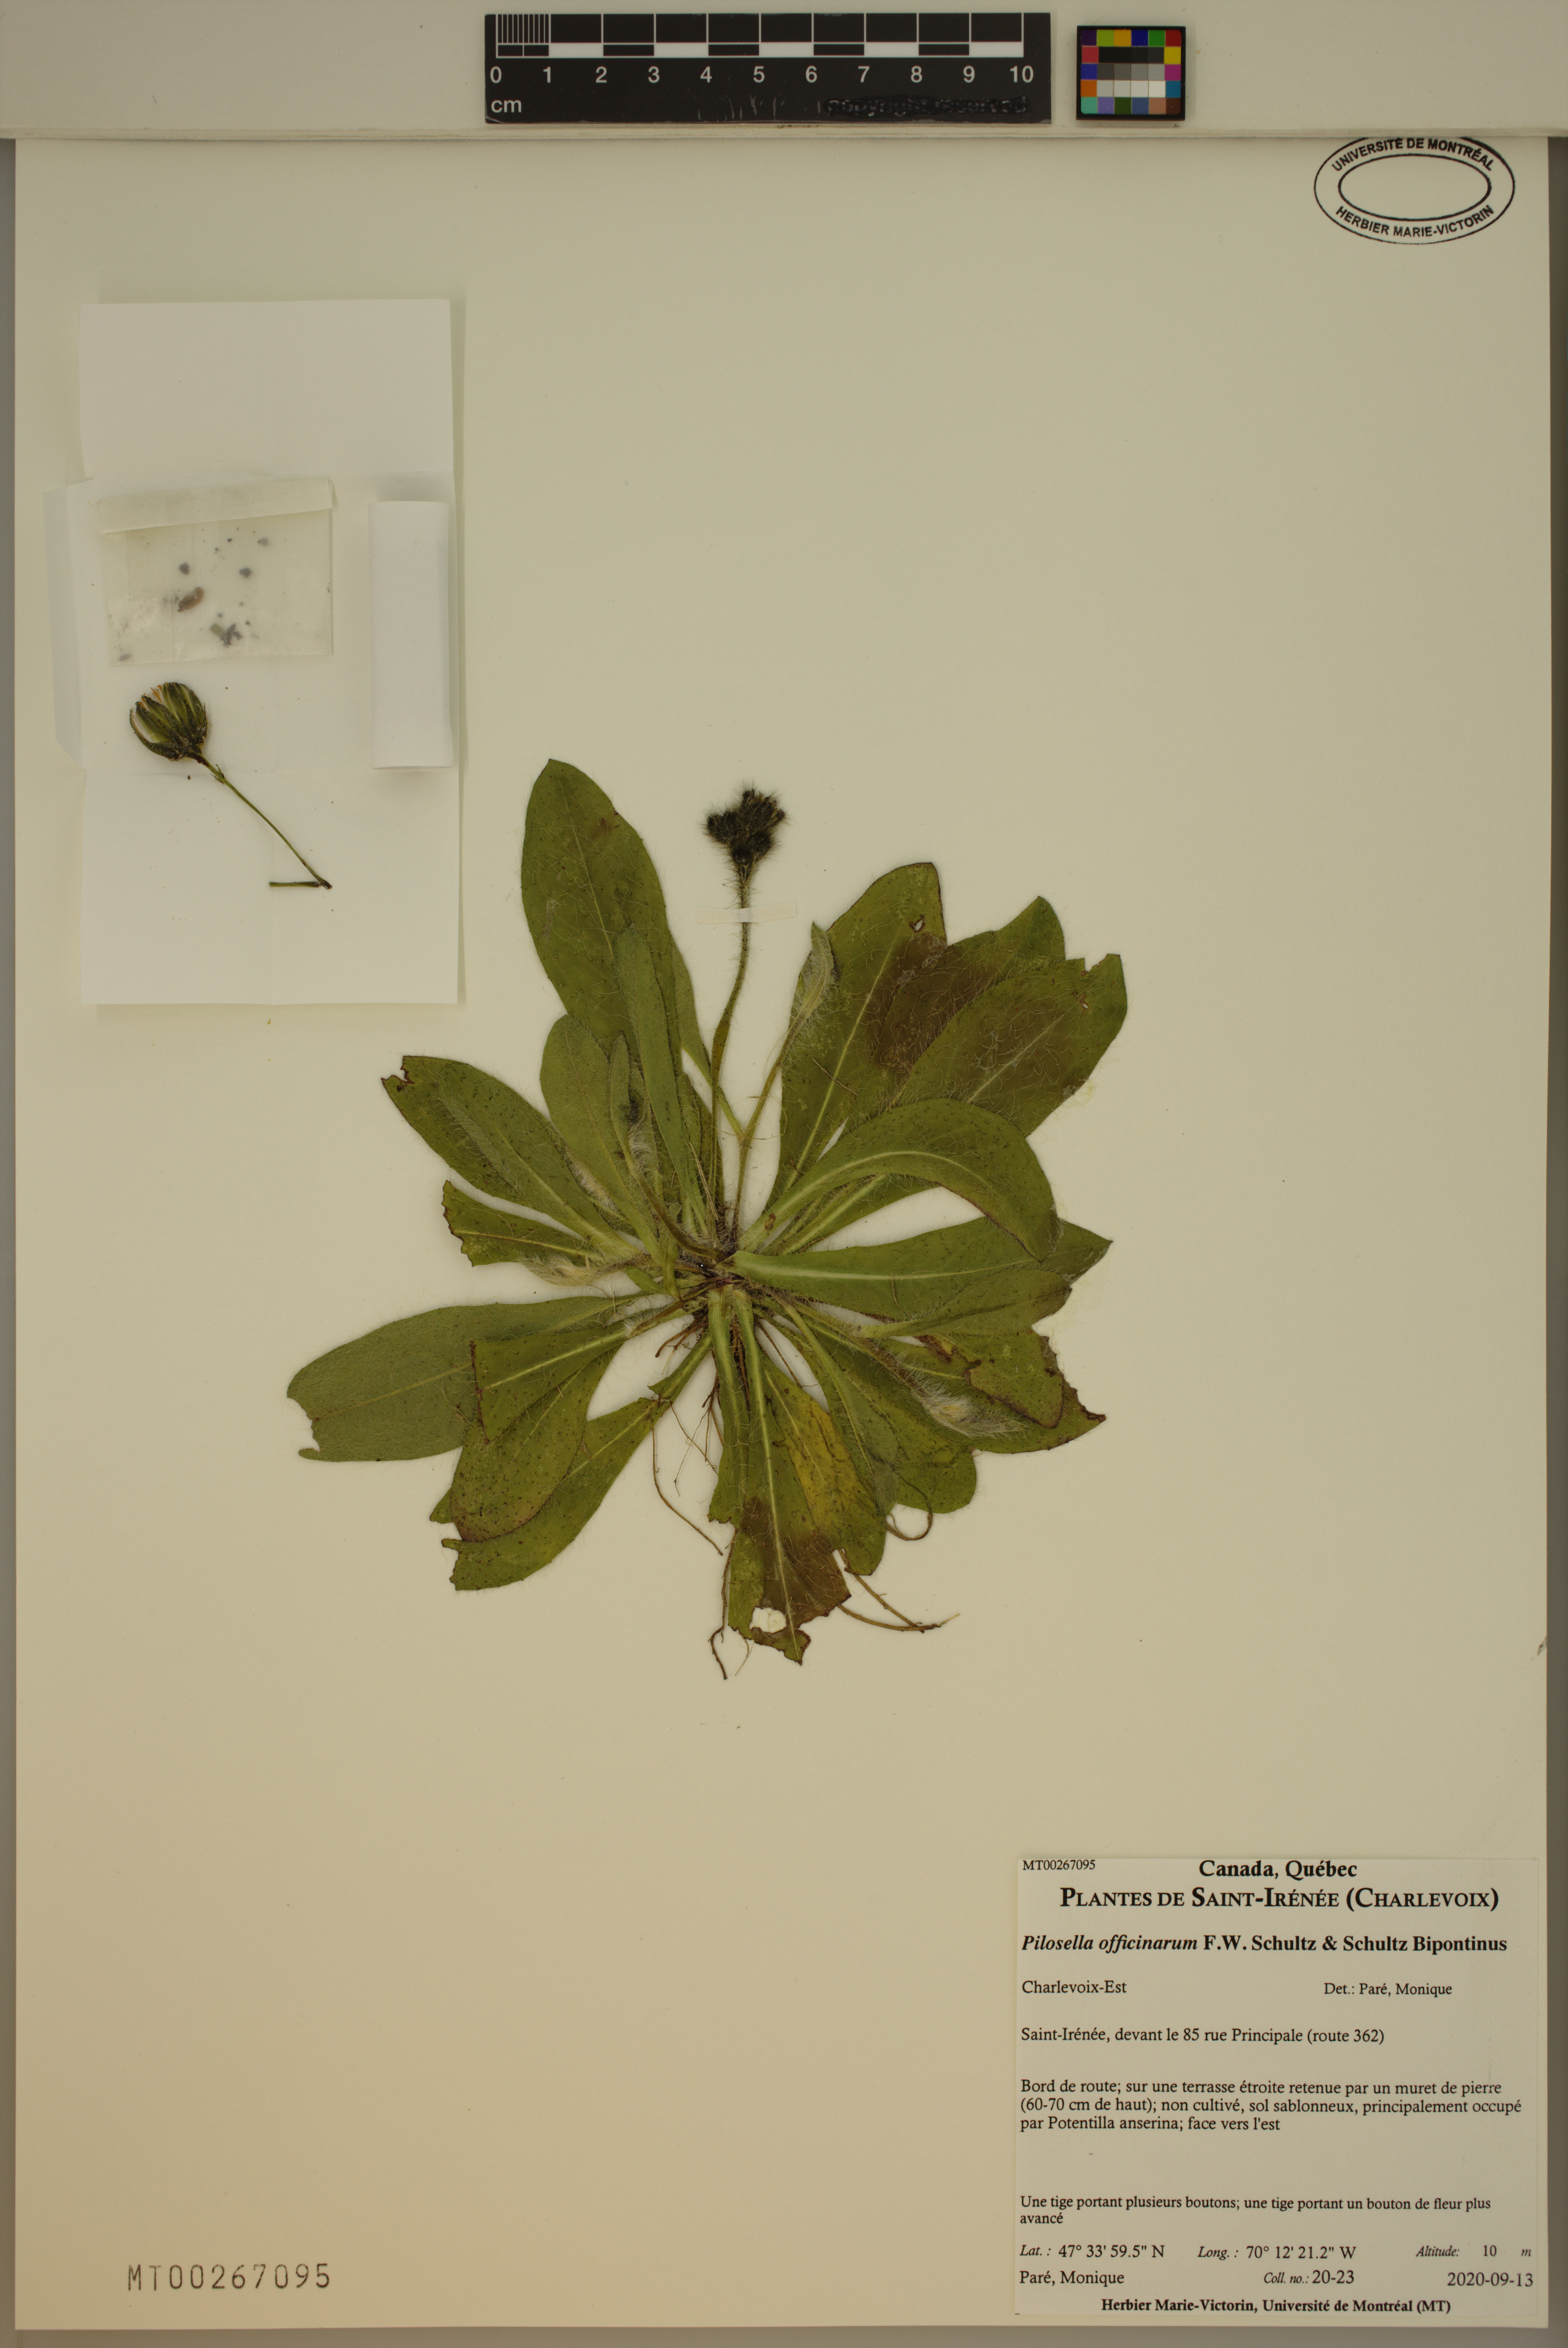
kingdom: Plantae
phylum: Tracheophyta
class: Magnoliopsida
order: Asterales
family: Asteraceae
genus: Pilosella
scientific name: Pilosella officinarum
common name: Mouse-ear hawkweed
